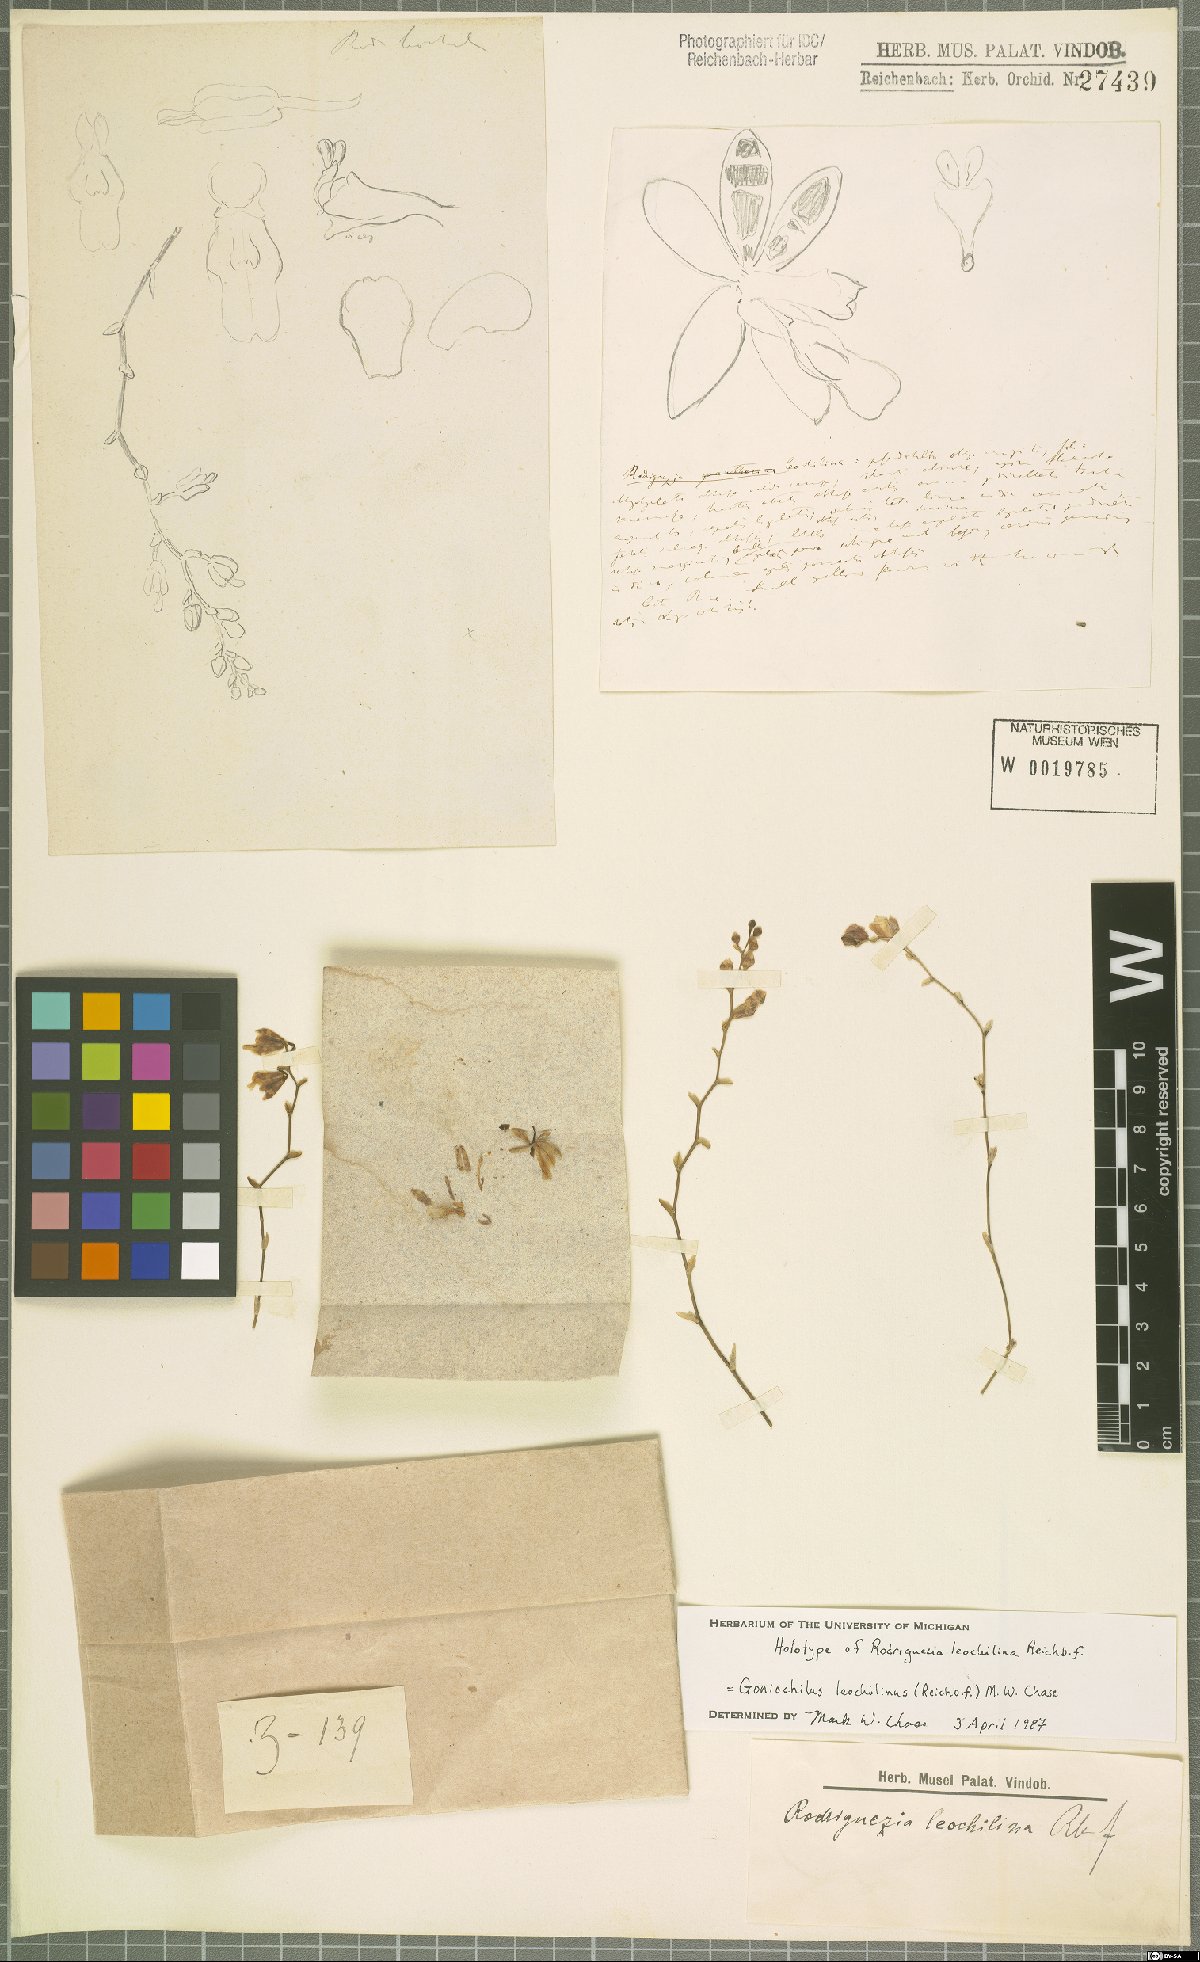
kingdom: Plantae
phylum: Tracheophyta
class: Liliopsida
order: Asparagales
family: Orchidaceae
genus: Leochilus
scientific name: Leochilus leochilinus
